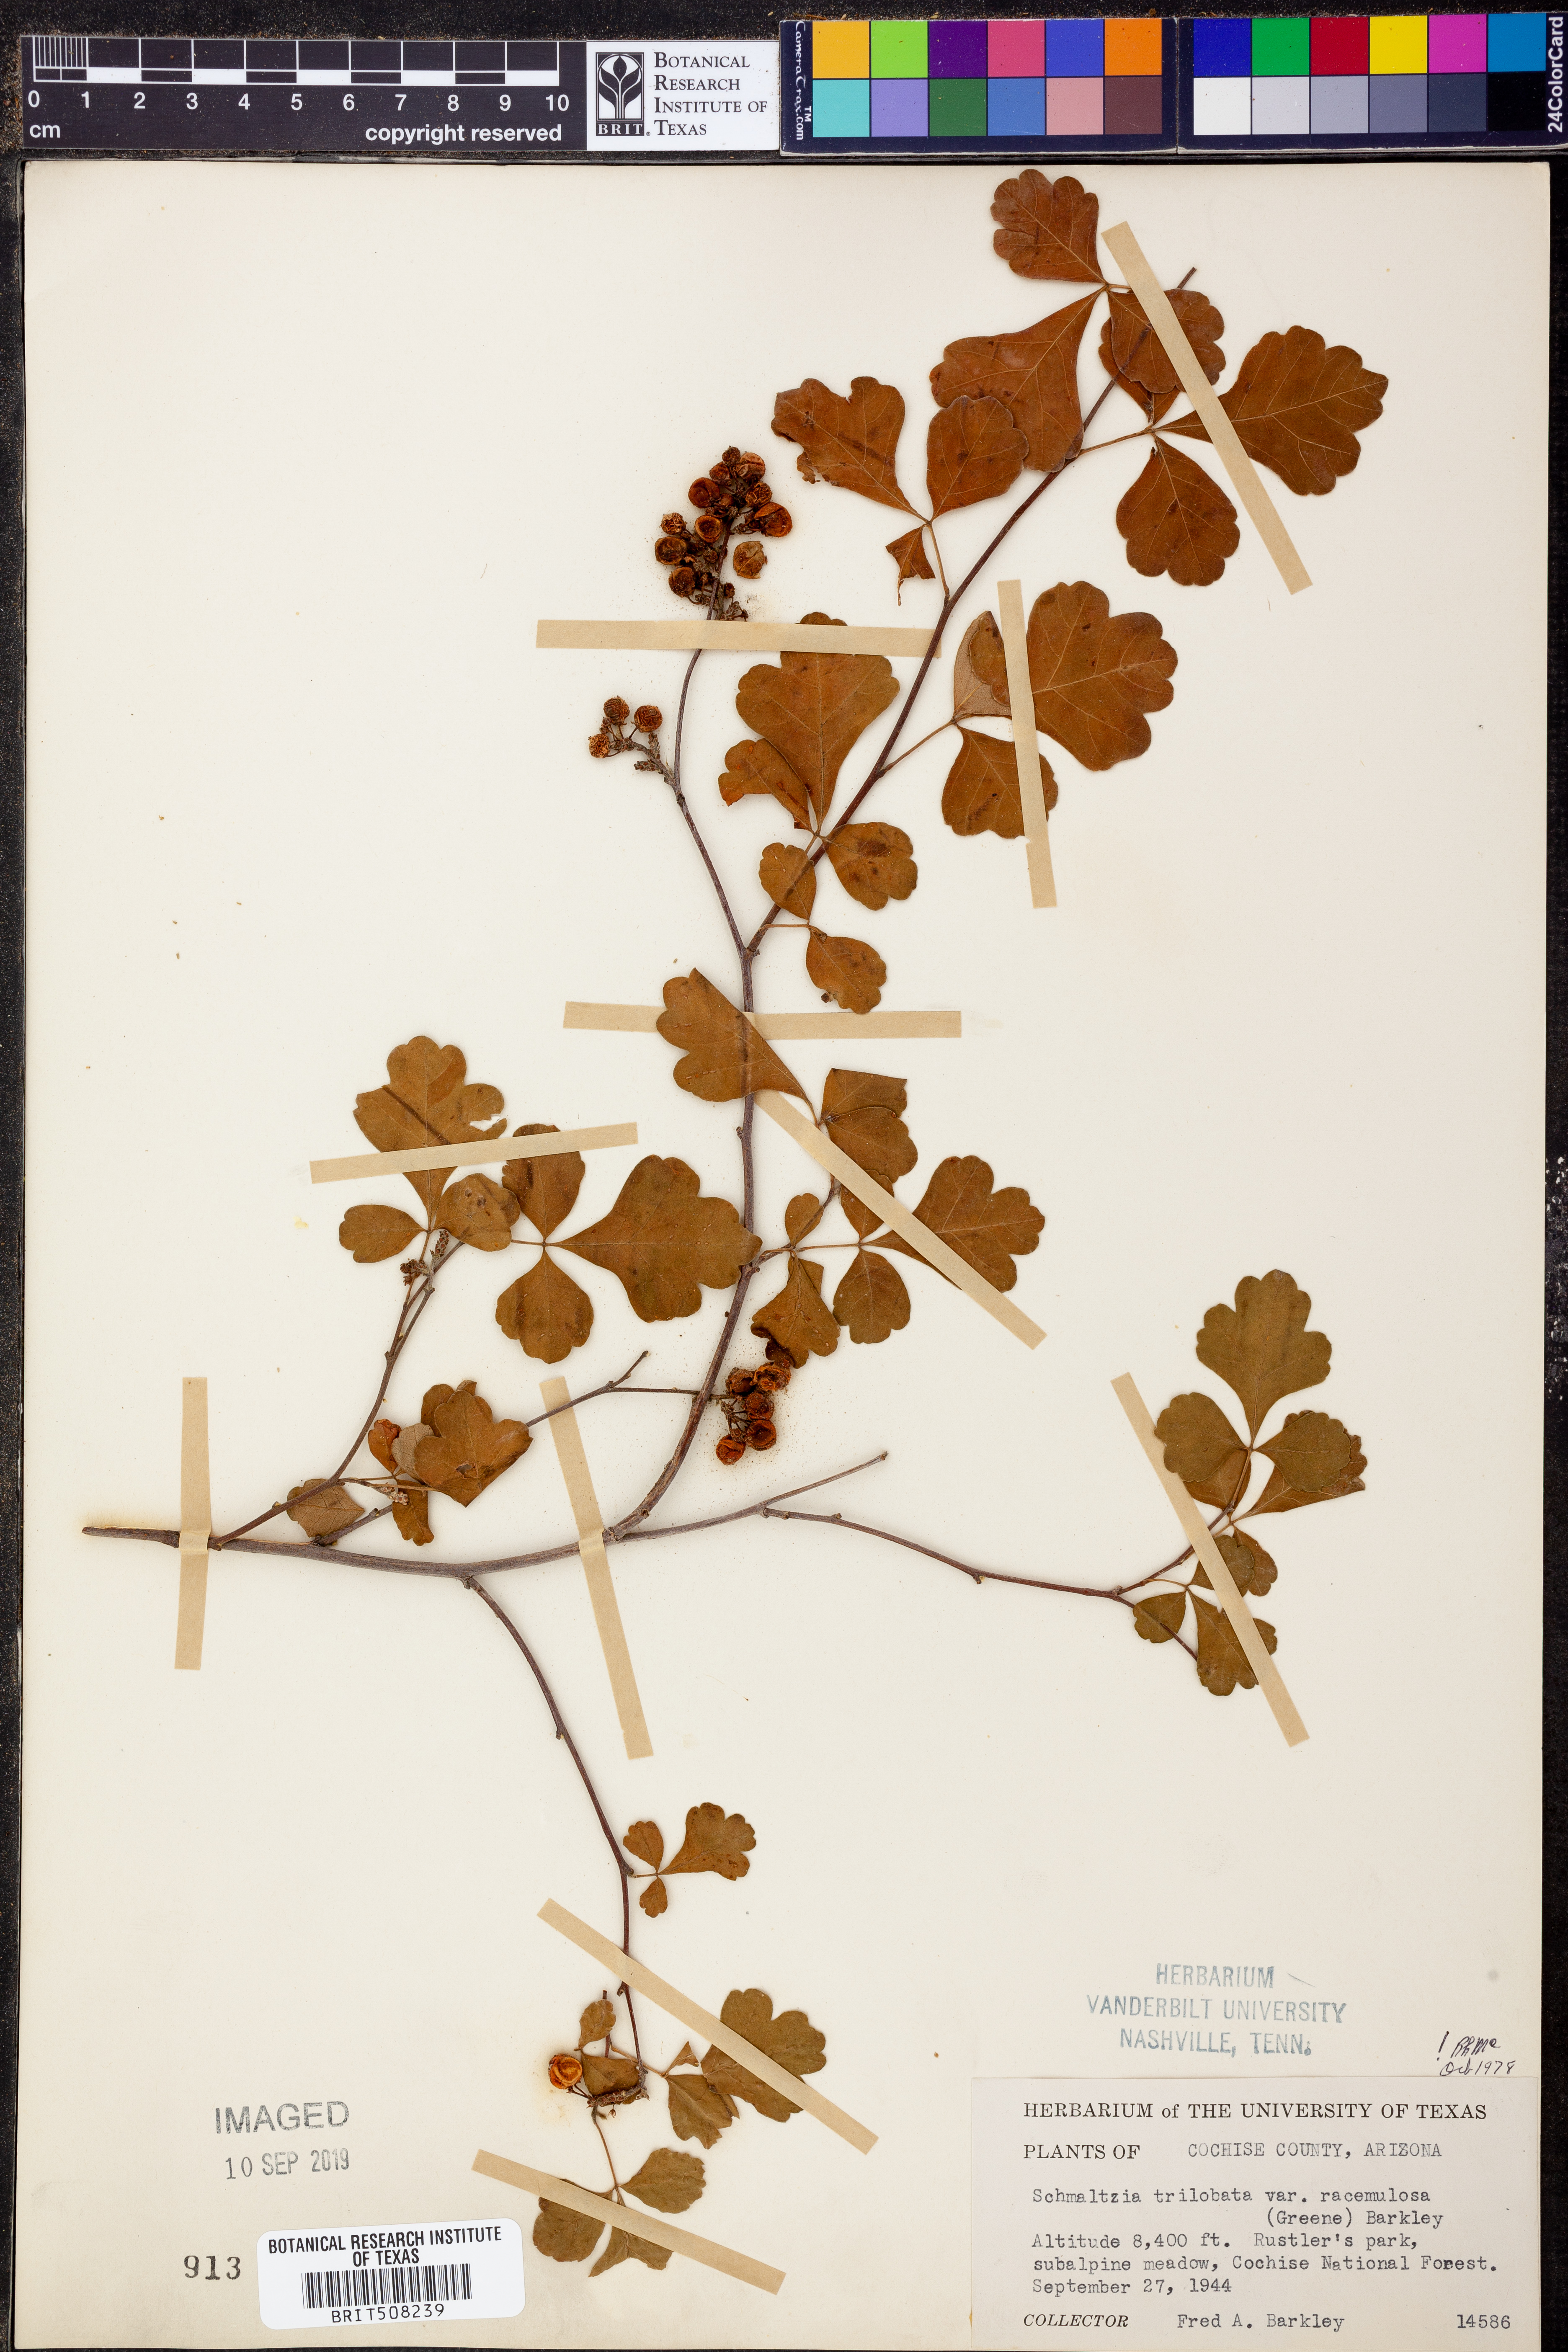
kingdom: Plantae
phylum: Tracheophyta
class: Magnoliopsida
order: Sapindales
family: Anacardiaceae
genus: Rhus
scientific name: Rhus trilobata
